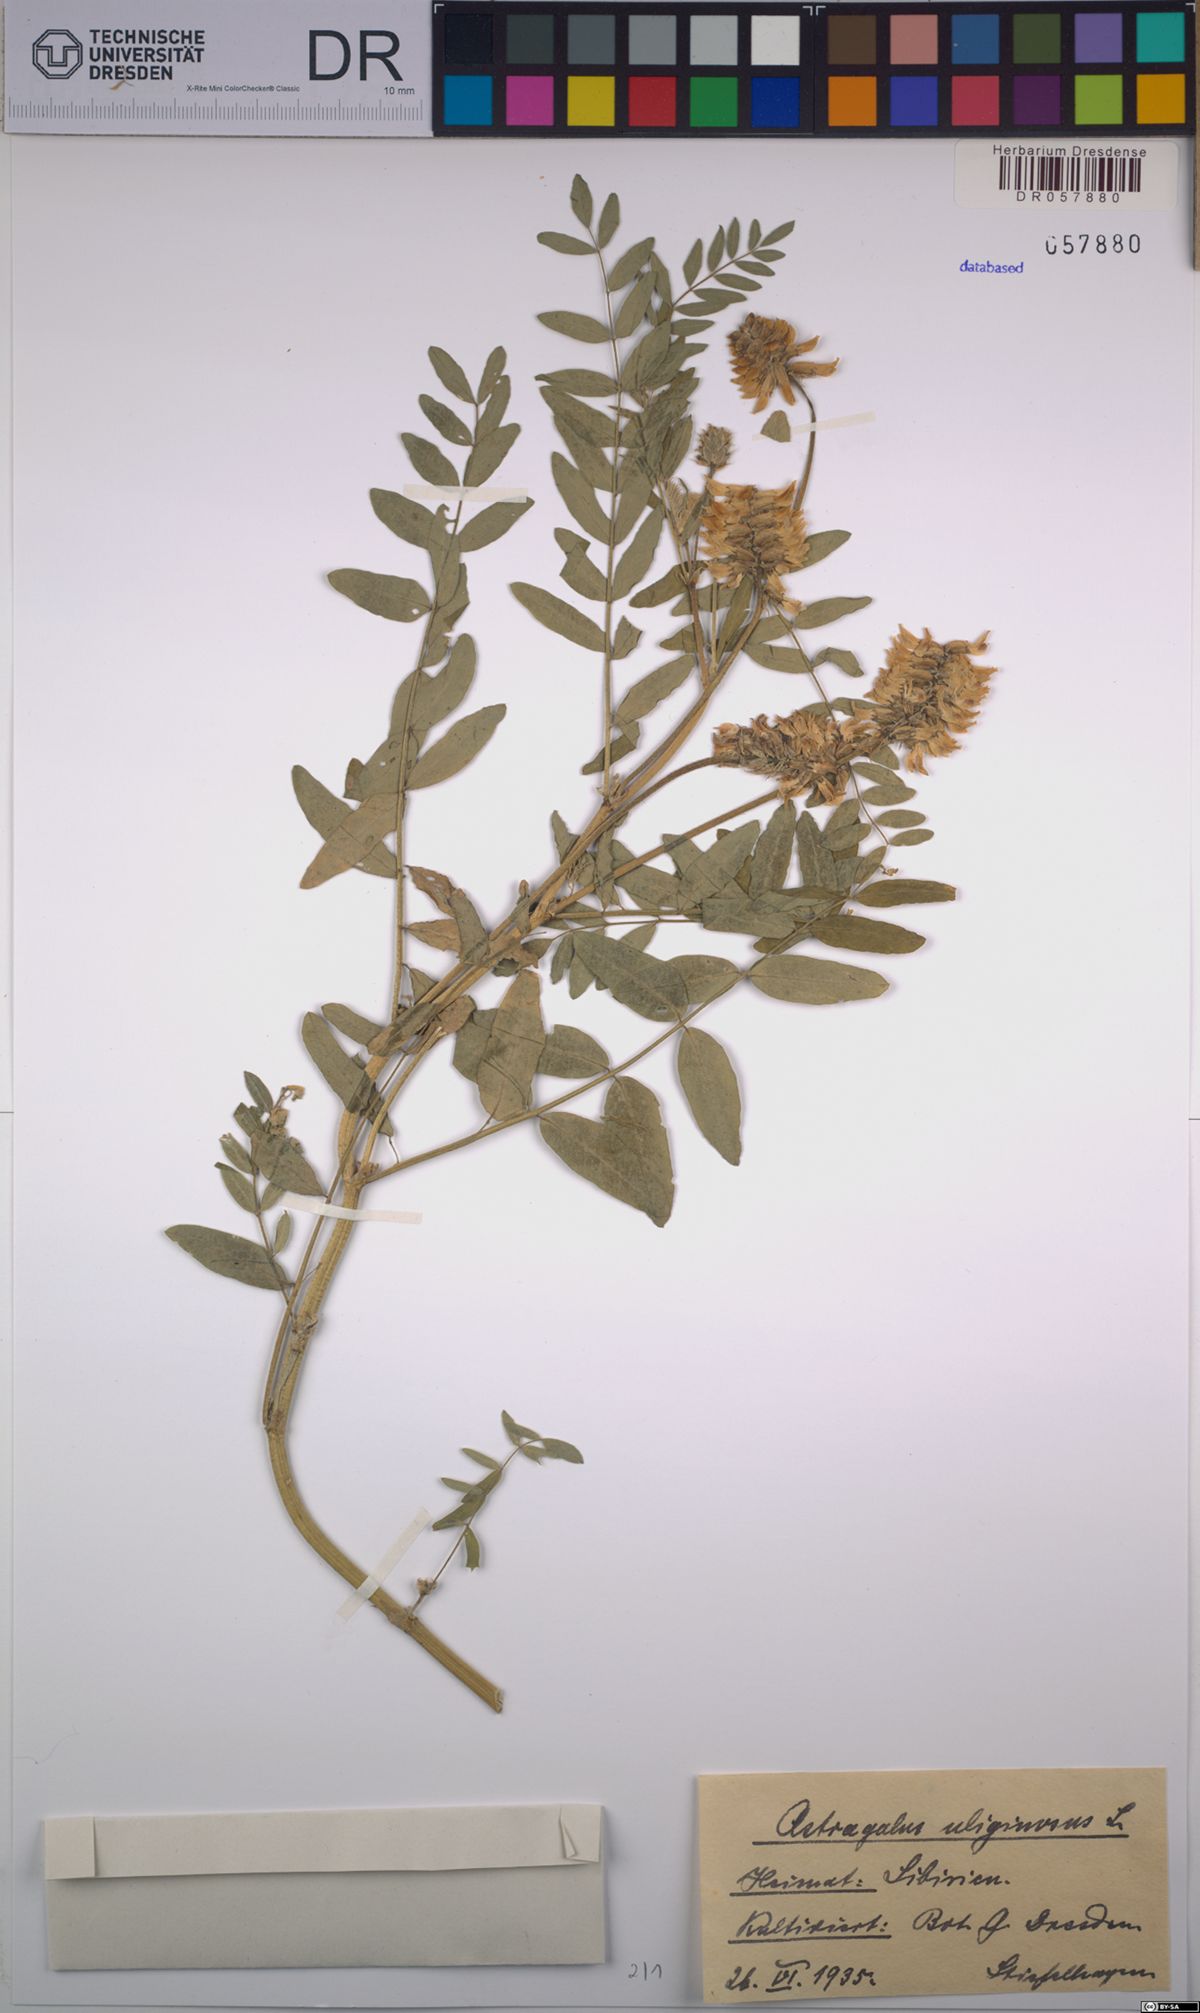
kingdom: Plantae
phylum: Tracheophyta
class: Magnoliopsida
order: Fabales
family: Fabaceae
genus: Astragalus
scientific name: Astragalus uliginosus
